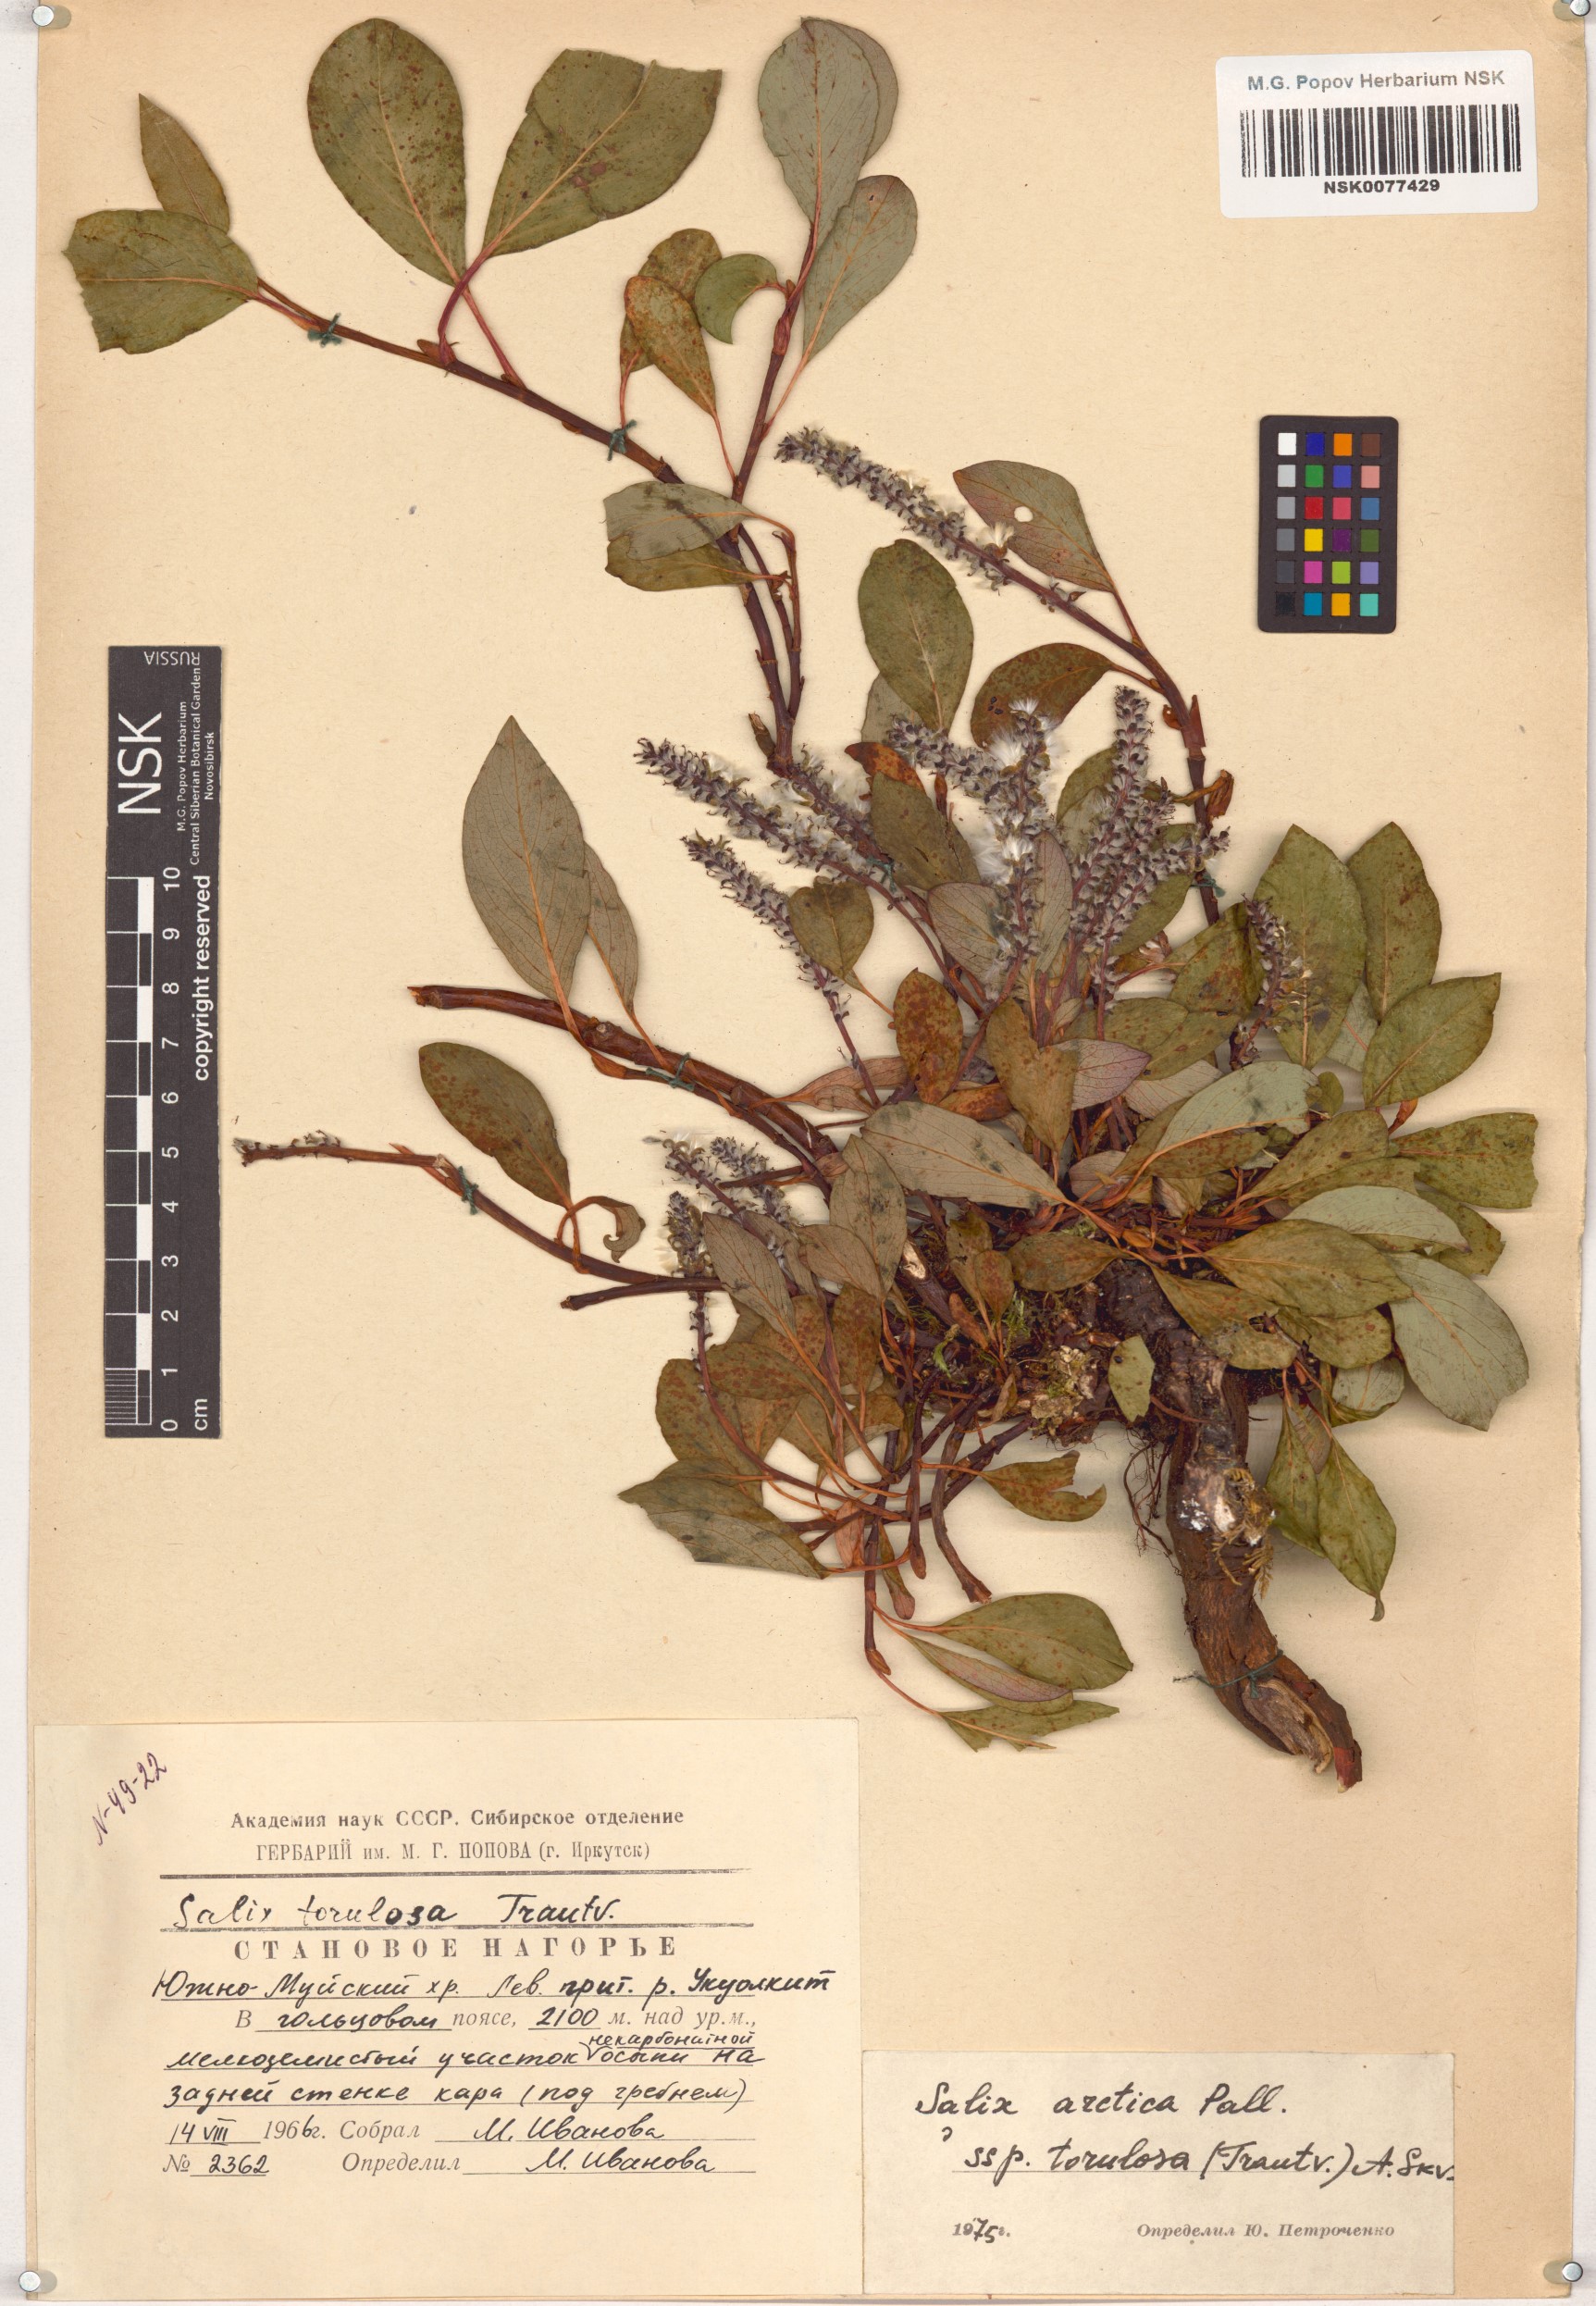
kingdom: Plantae
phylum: Tracheophyta
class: Magnoliopsida
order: Malpighiales
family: Salicaceae
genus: Salix
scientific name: Salix arctica
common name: Arctic willow
